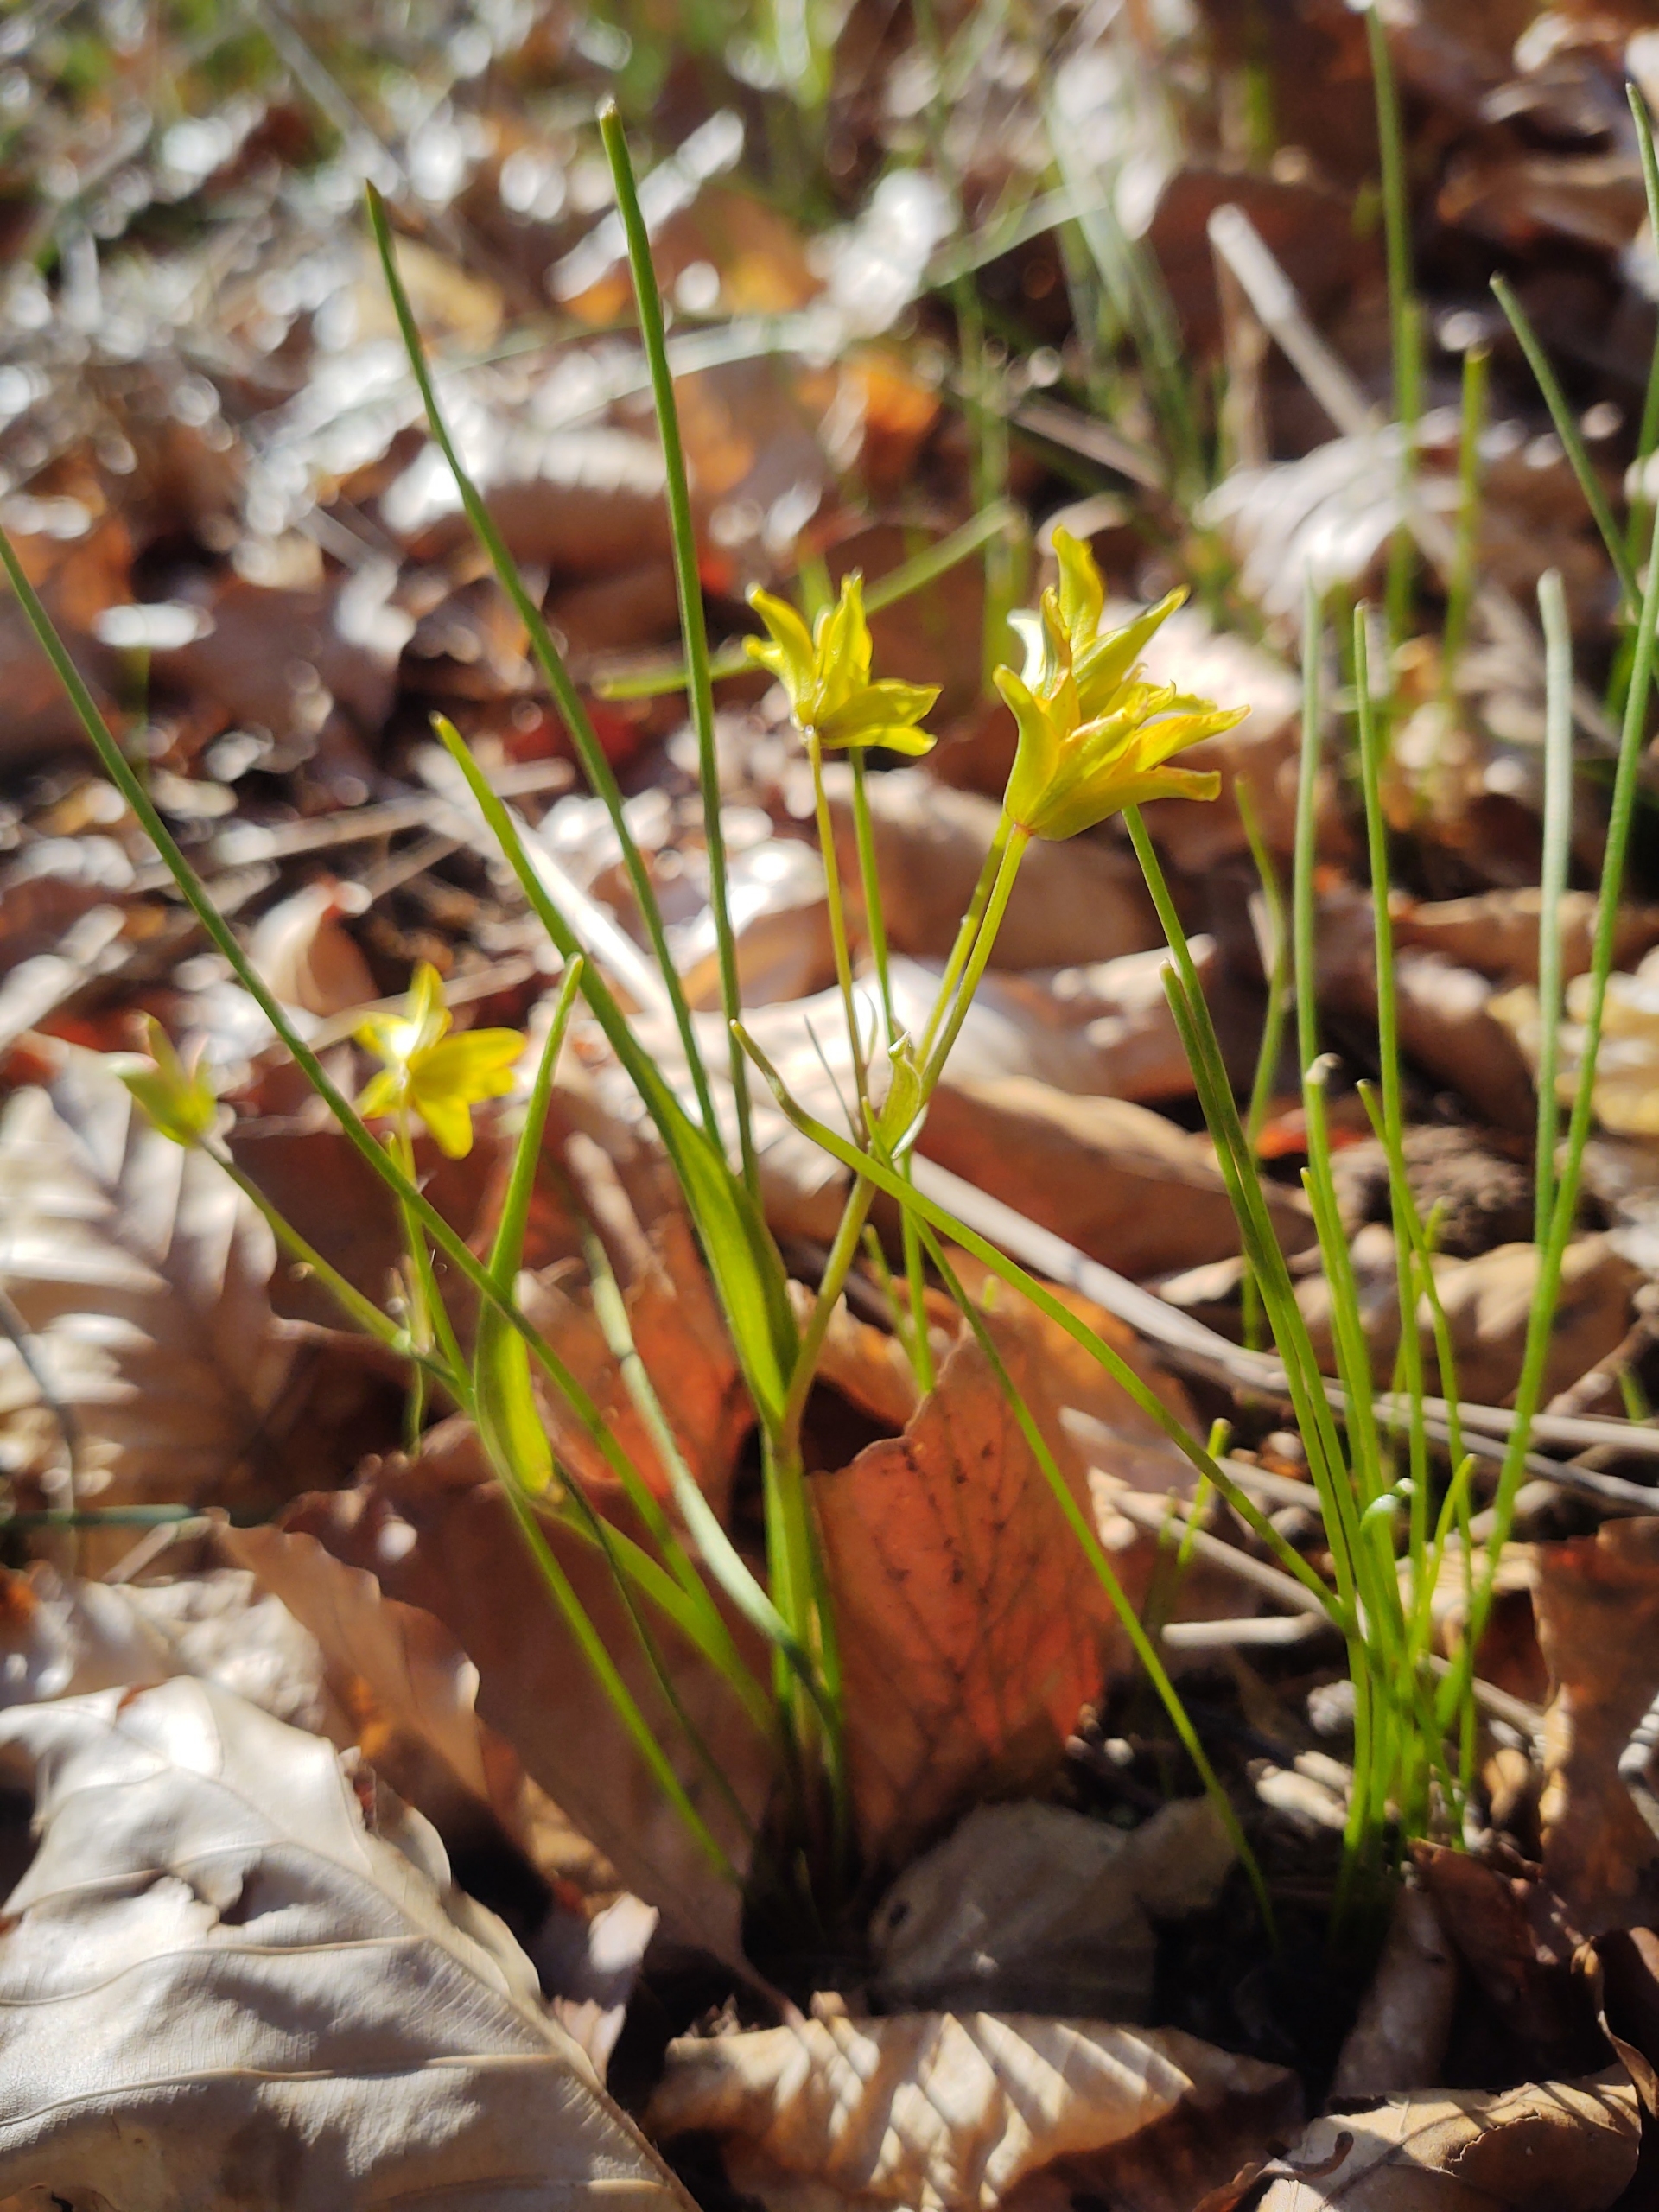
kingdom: Plantae
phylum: Tracheophyta
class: Liliopsida
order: Liliales
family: Liliaceae
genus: Gagea
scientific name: Gagea spathacea
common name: Hylster-guldstjerne
